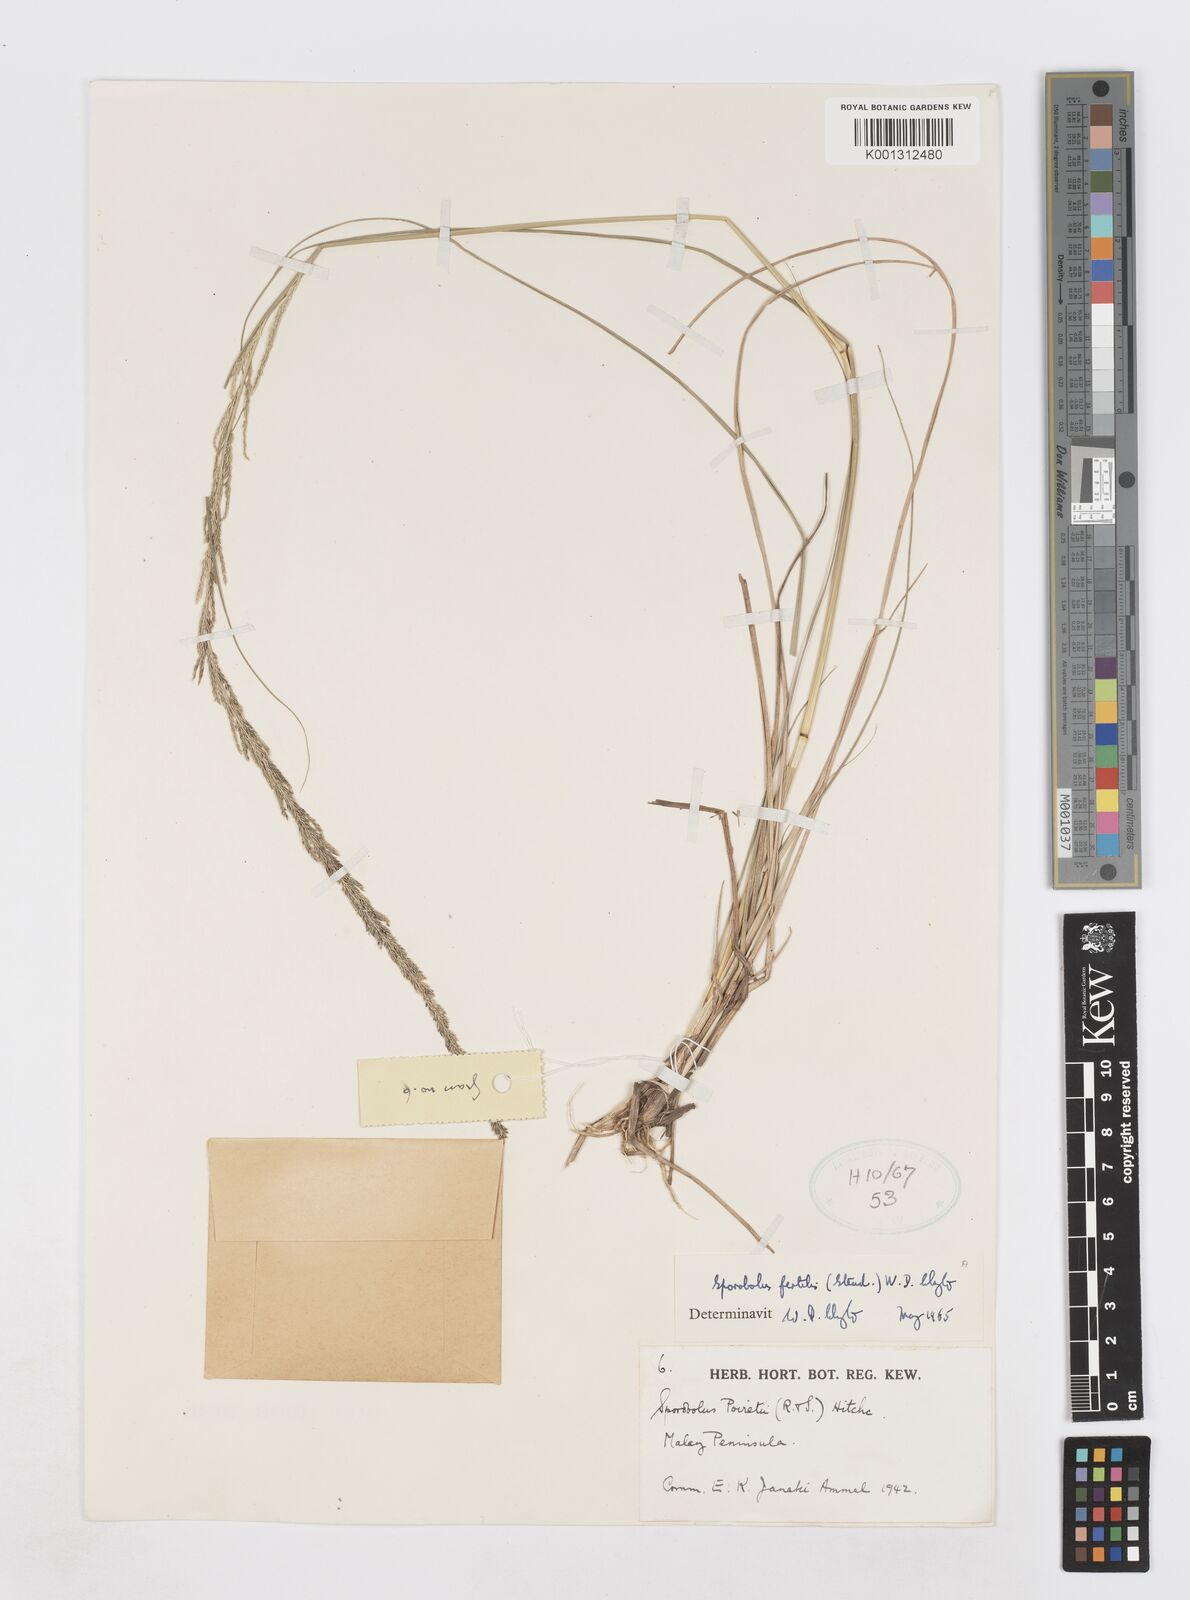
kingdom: Plantae
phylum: Tracheophyta
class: Liliopsida
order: Poales
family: Poaceae
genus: Sporobolus
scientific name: Sporobolus fertilis
